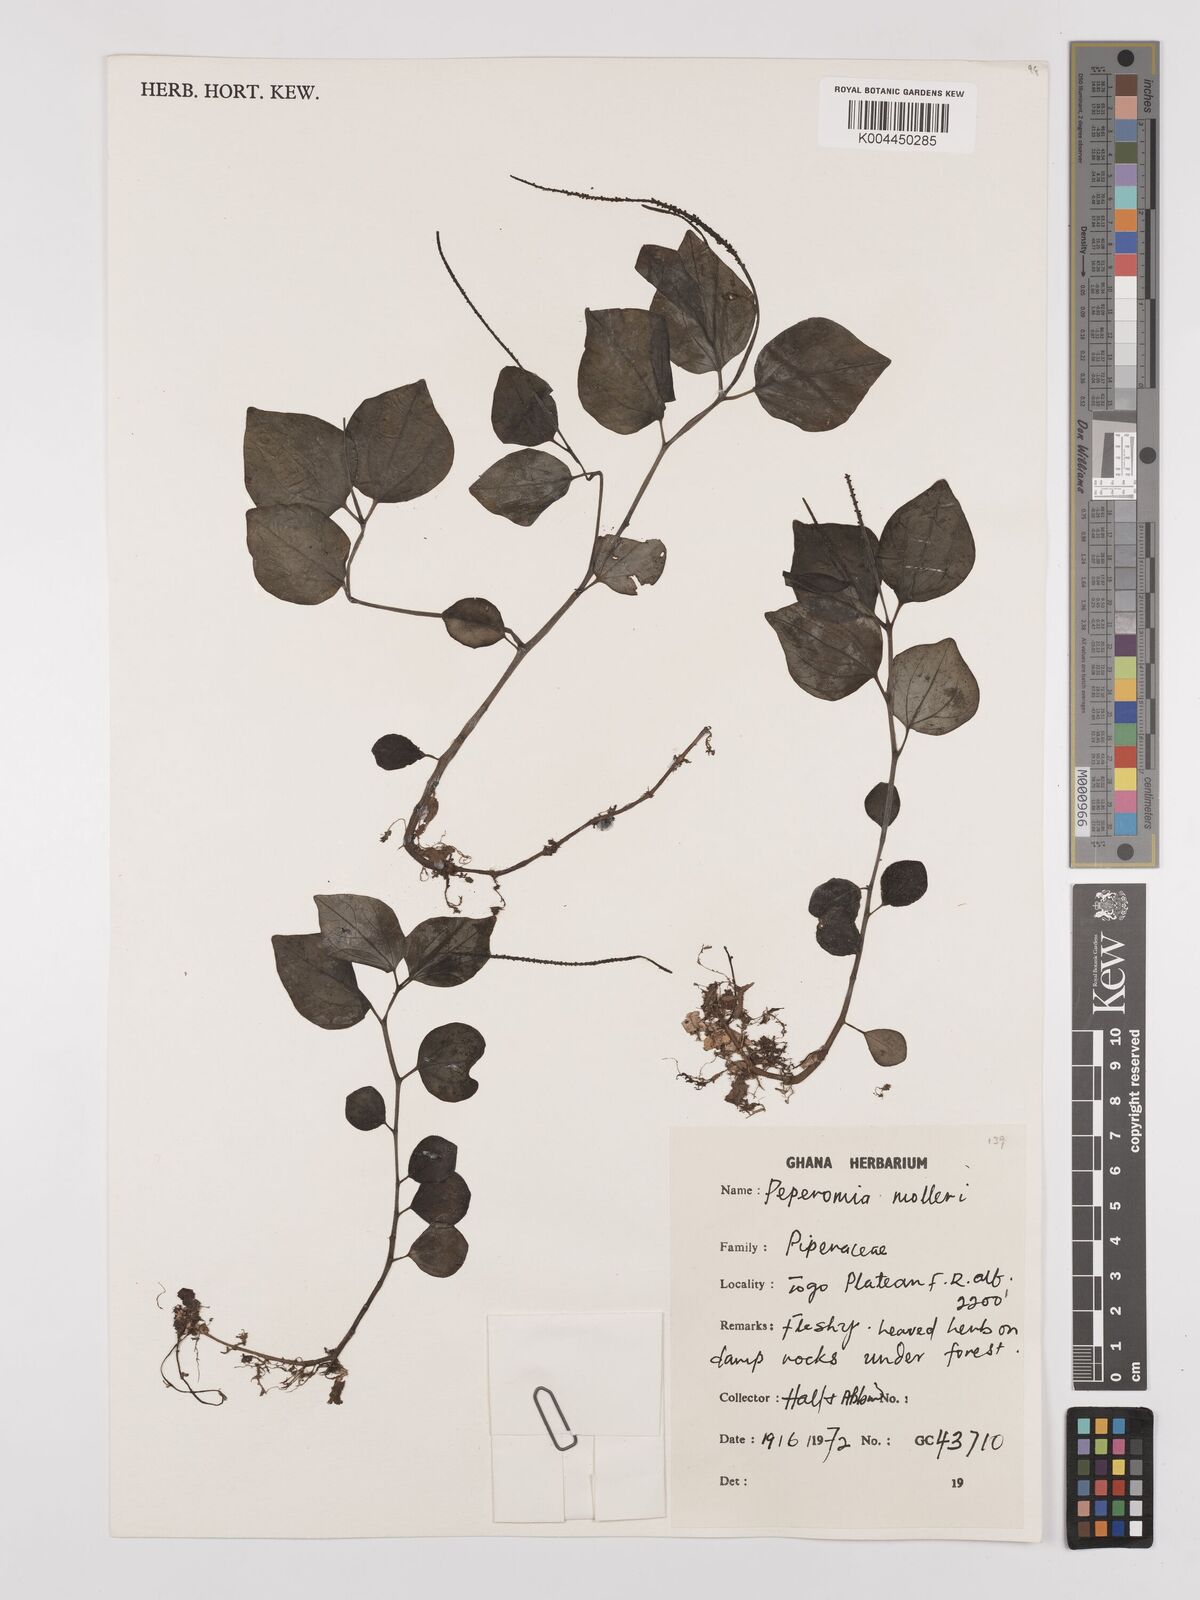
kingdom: Plantae
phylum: Tracheophyta
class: Magnoliopsida
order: Piperales
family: Piperaceae
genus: Peperomia
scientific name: Peperomia molleri
